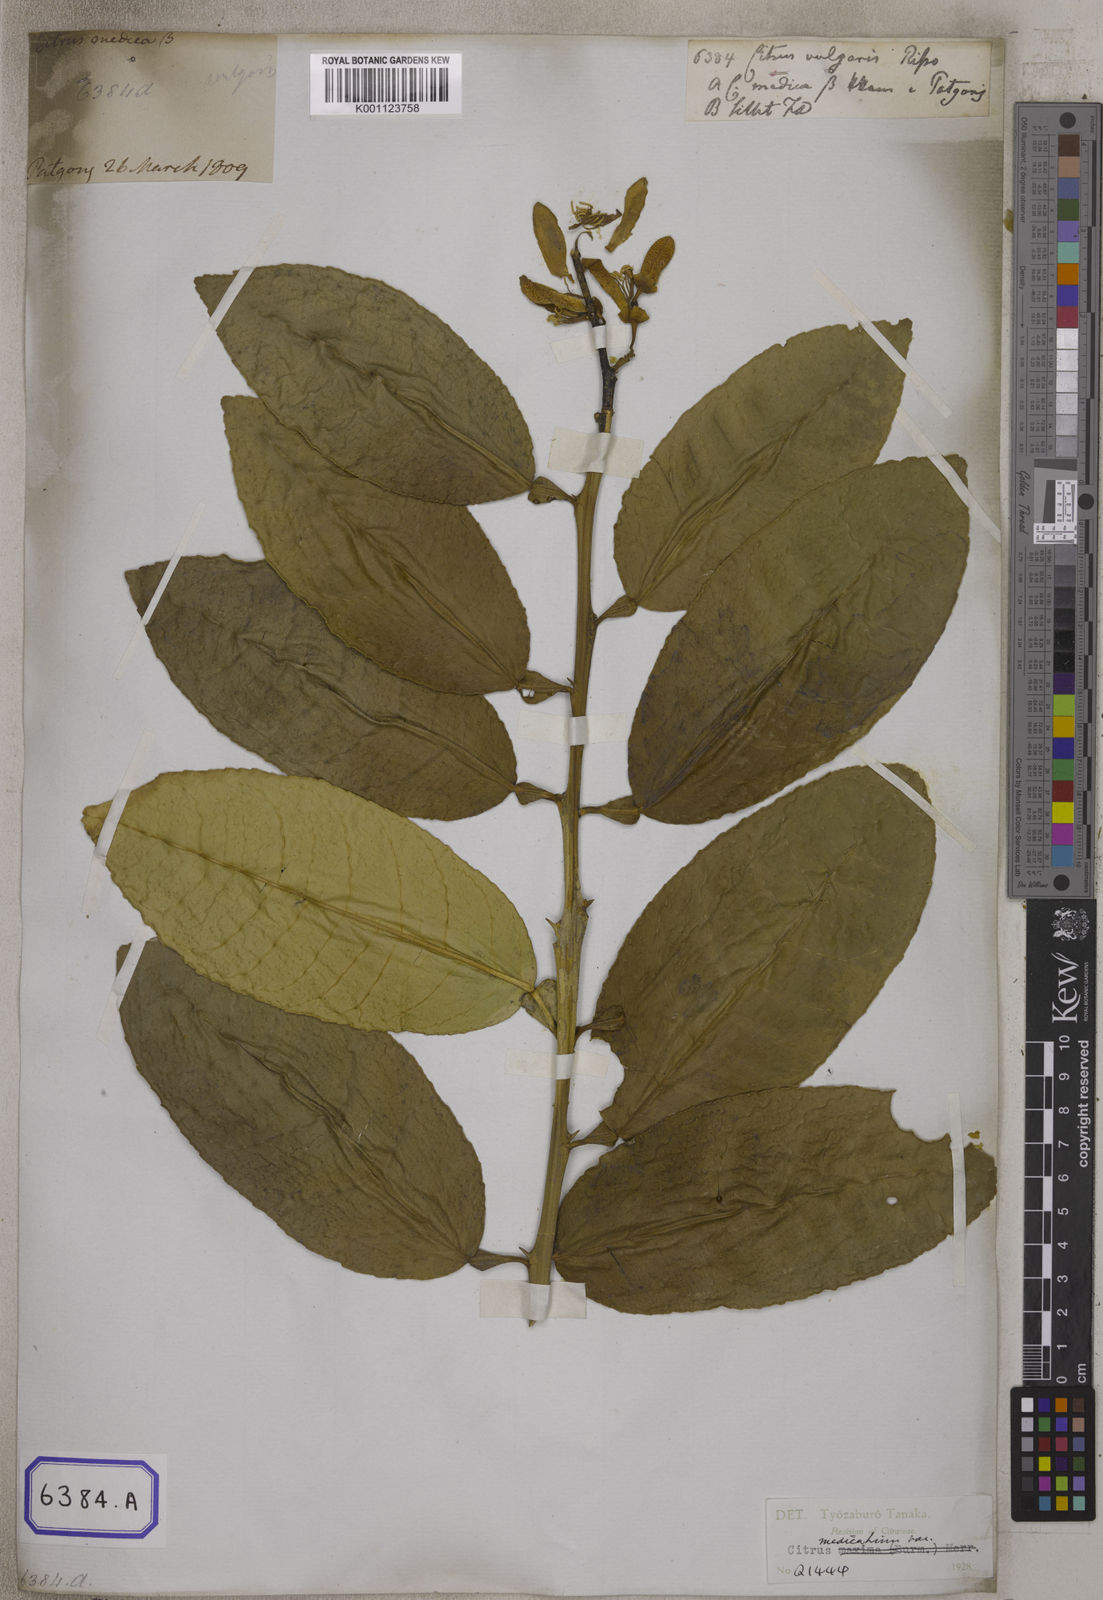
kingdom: Plantae
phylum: Tracheophyta
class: Magnoliopsida
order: Sapindales
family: Rutaceae
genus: Citrus
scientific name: Citrus
